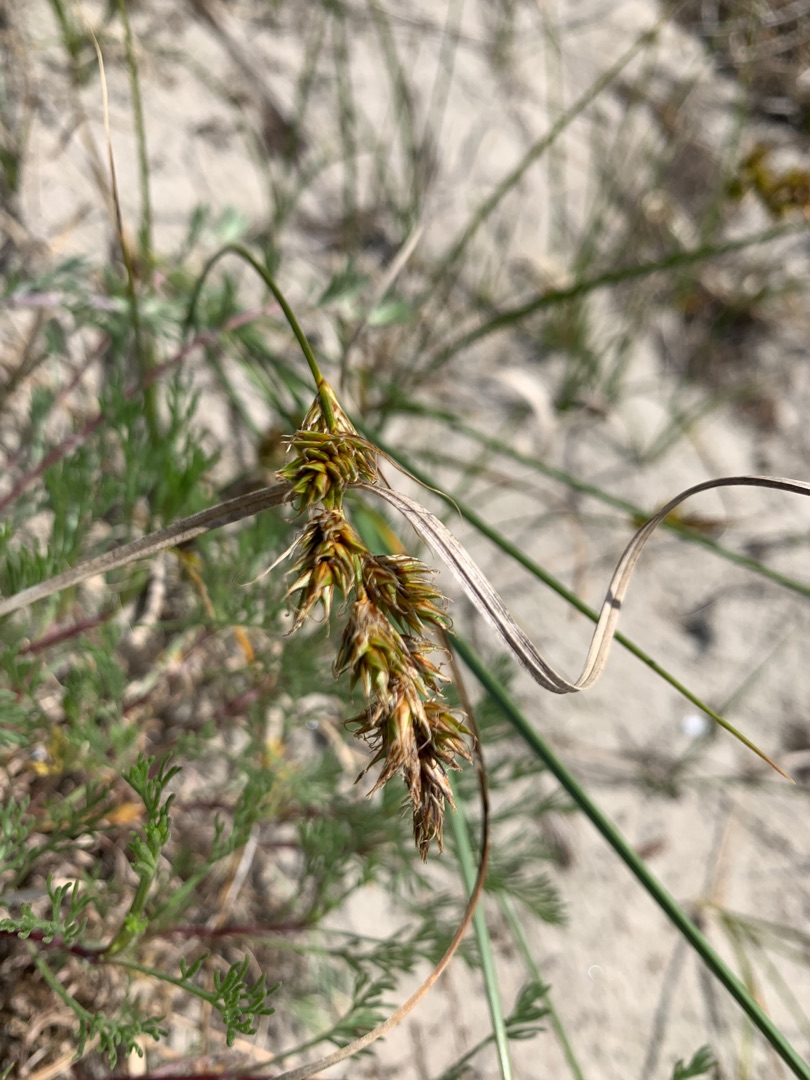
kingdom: Plantae
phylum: Tracheophyta
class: Liliopsida
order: Poales
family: Cyperaceae
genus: Carex
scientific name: Carex arenaria
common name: Sand-star
